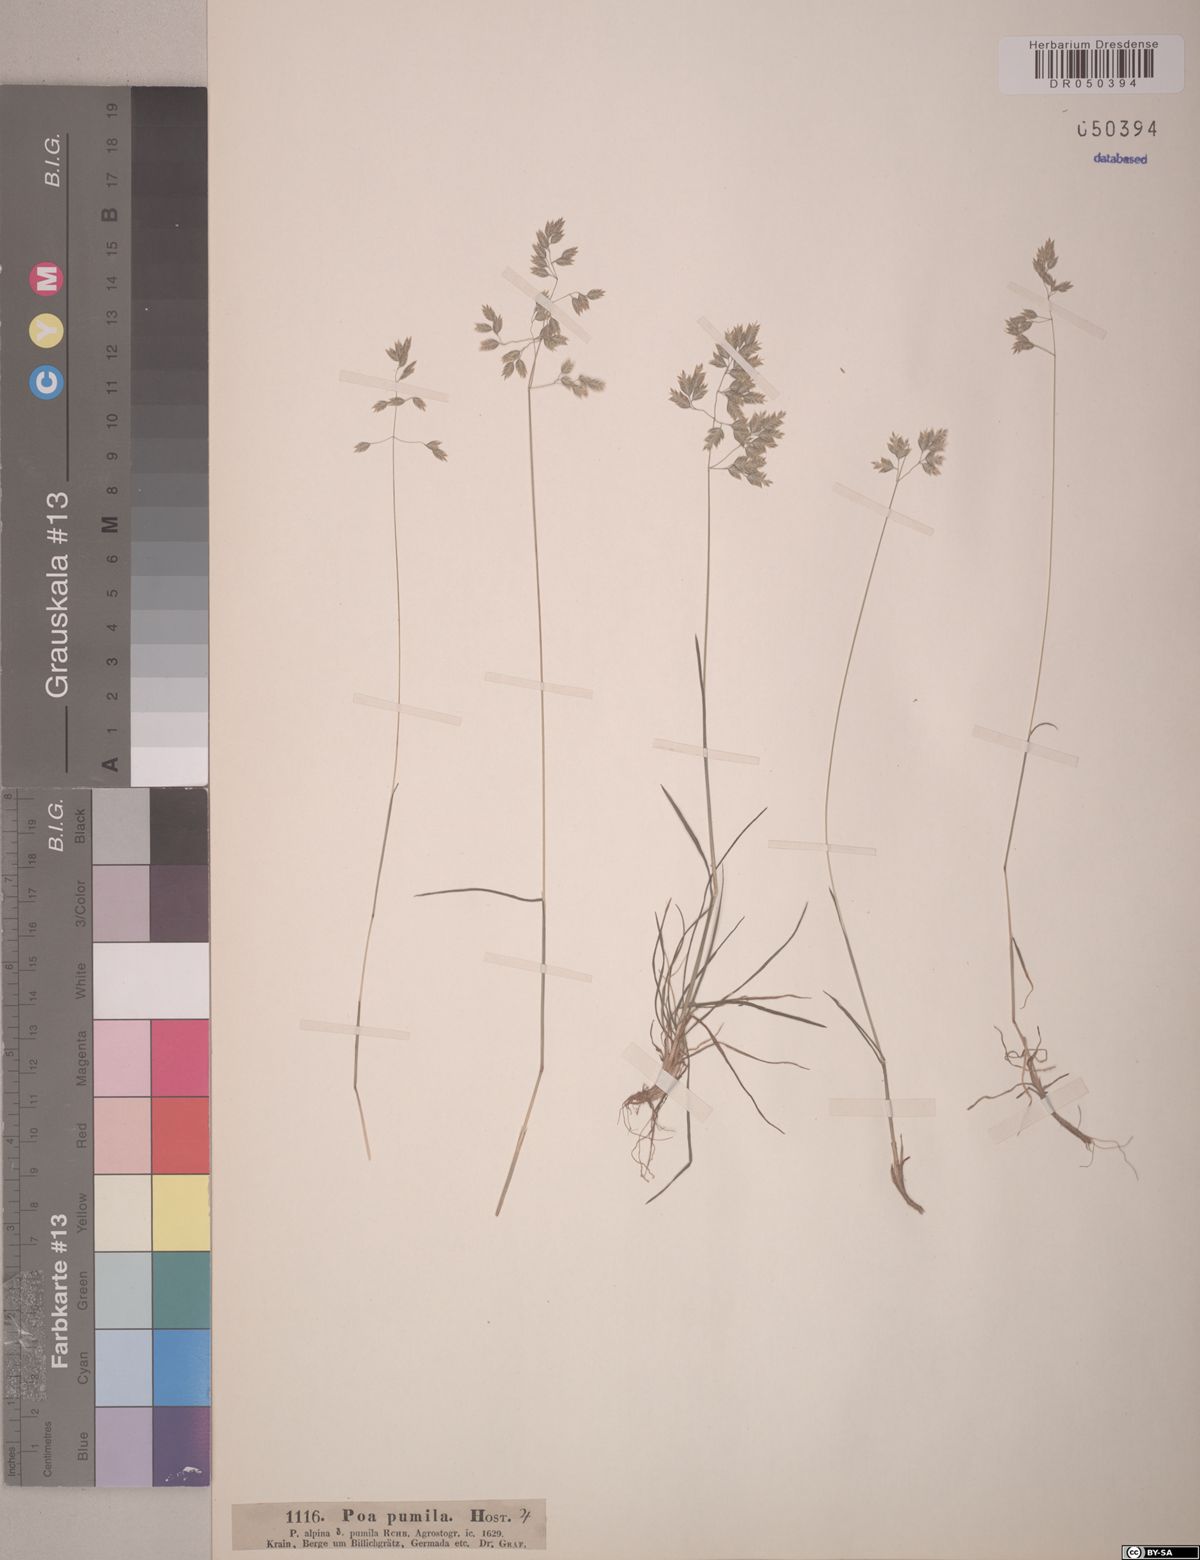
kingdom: Plantae
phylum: Tracheophyta
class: Liliopsida
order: Poales
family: Poaceae
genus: Poa
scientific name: Poa pumila
